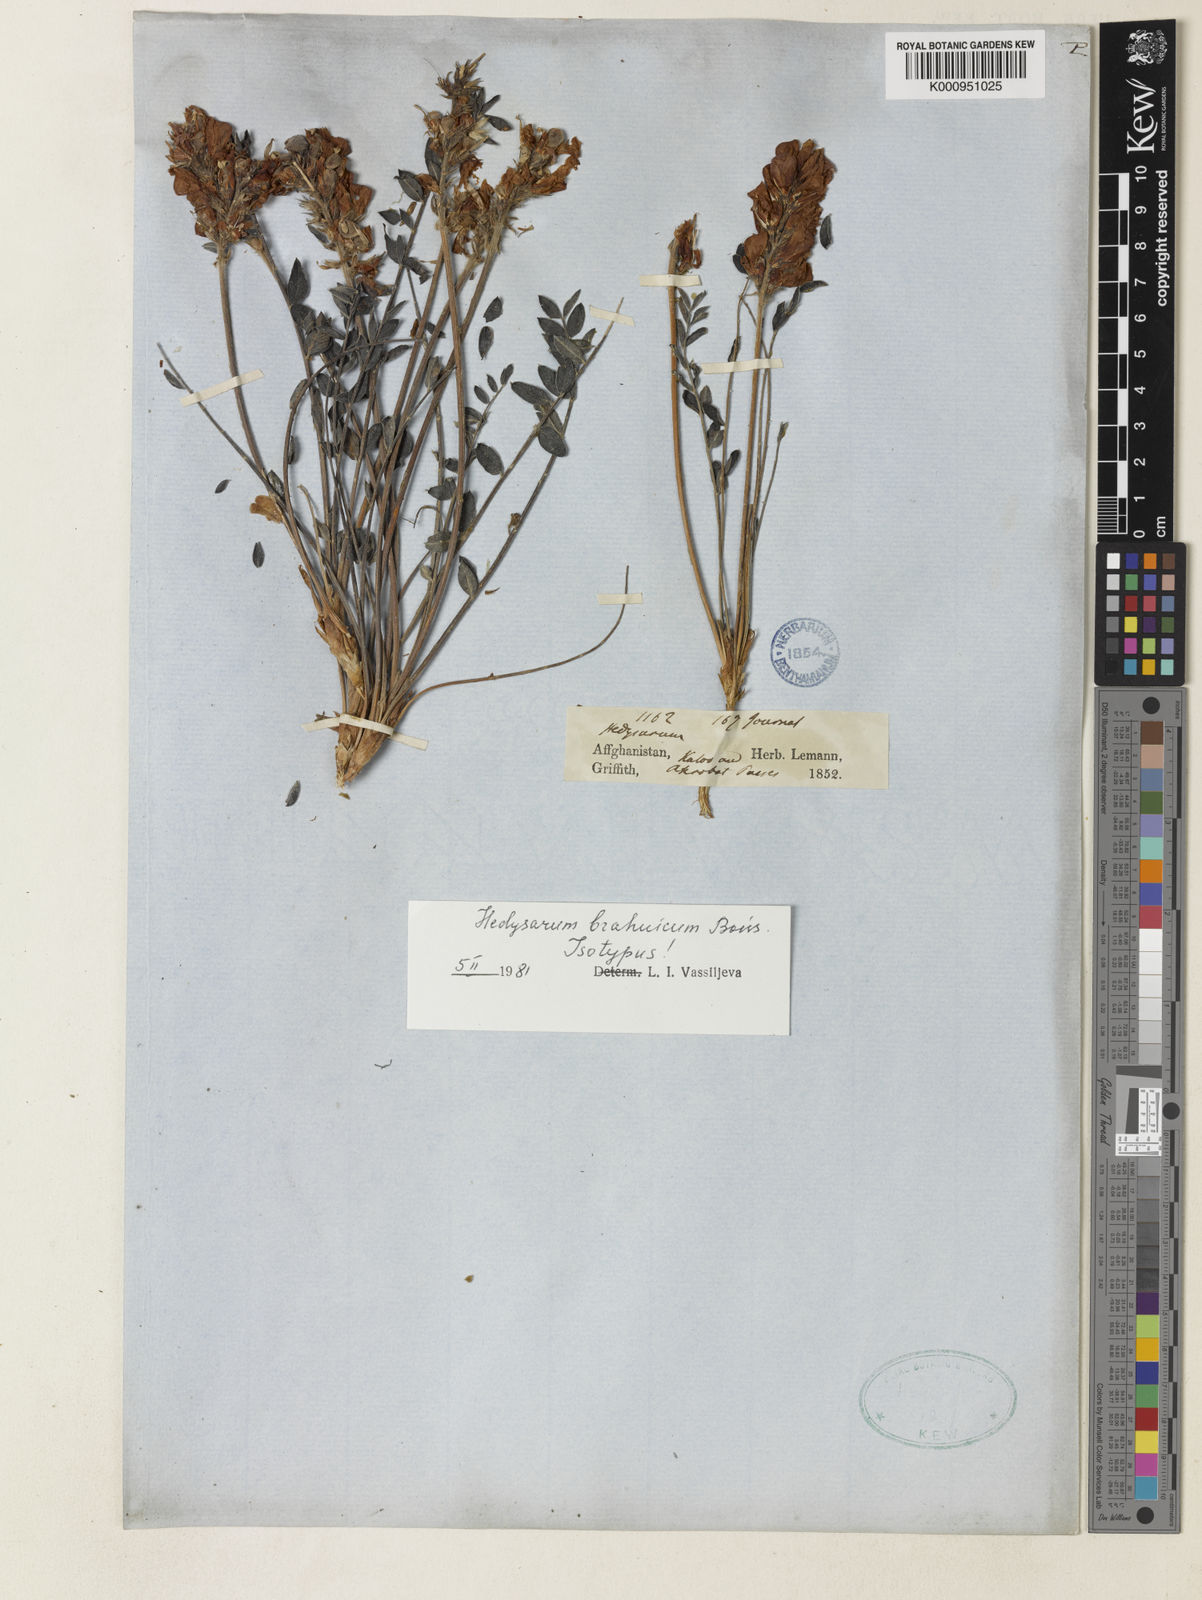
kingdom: Plantae
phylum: Tracheophyta
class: Magnoliopsida
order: Fabales
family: Fabaceae
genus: Hedysarum
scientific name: Hedysarum brahuicum
